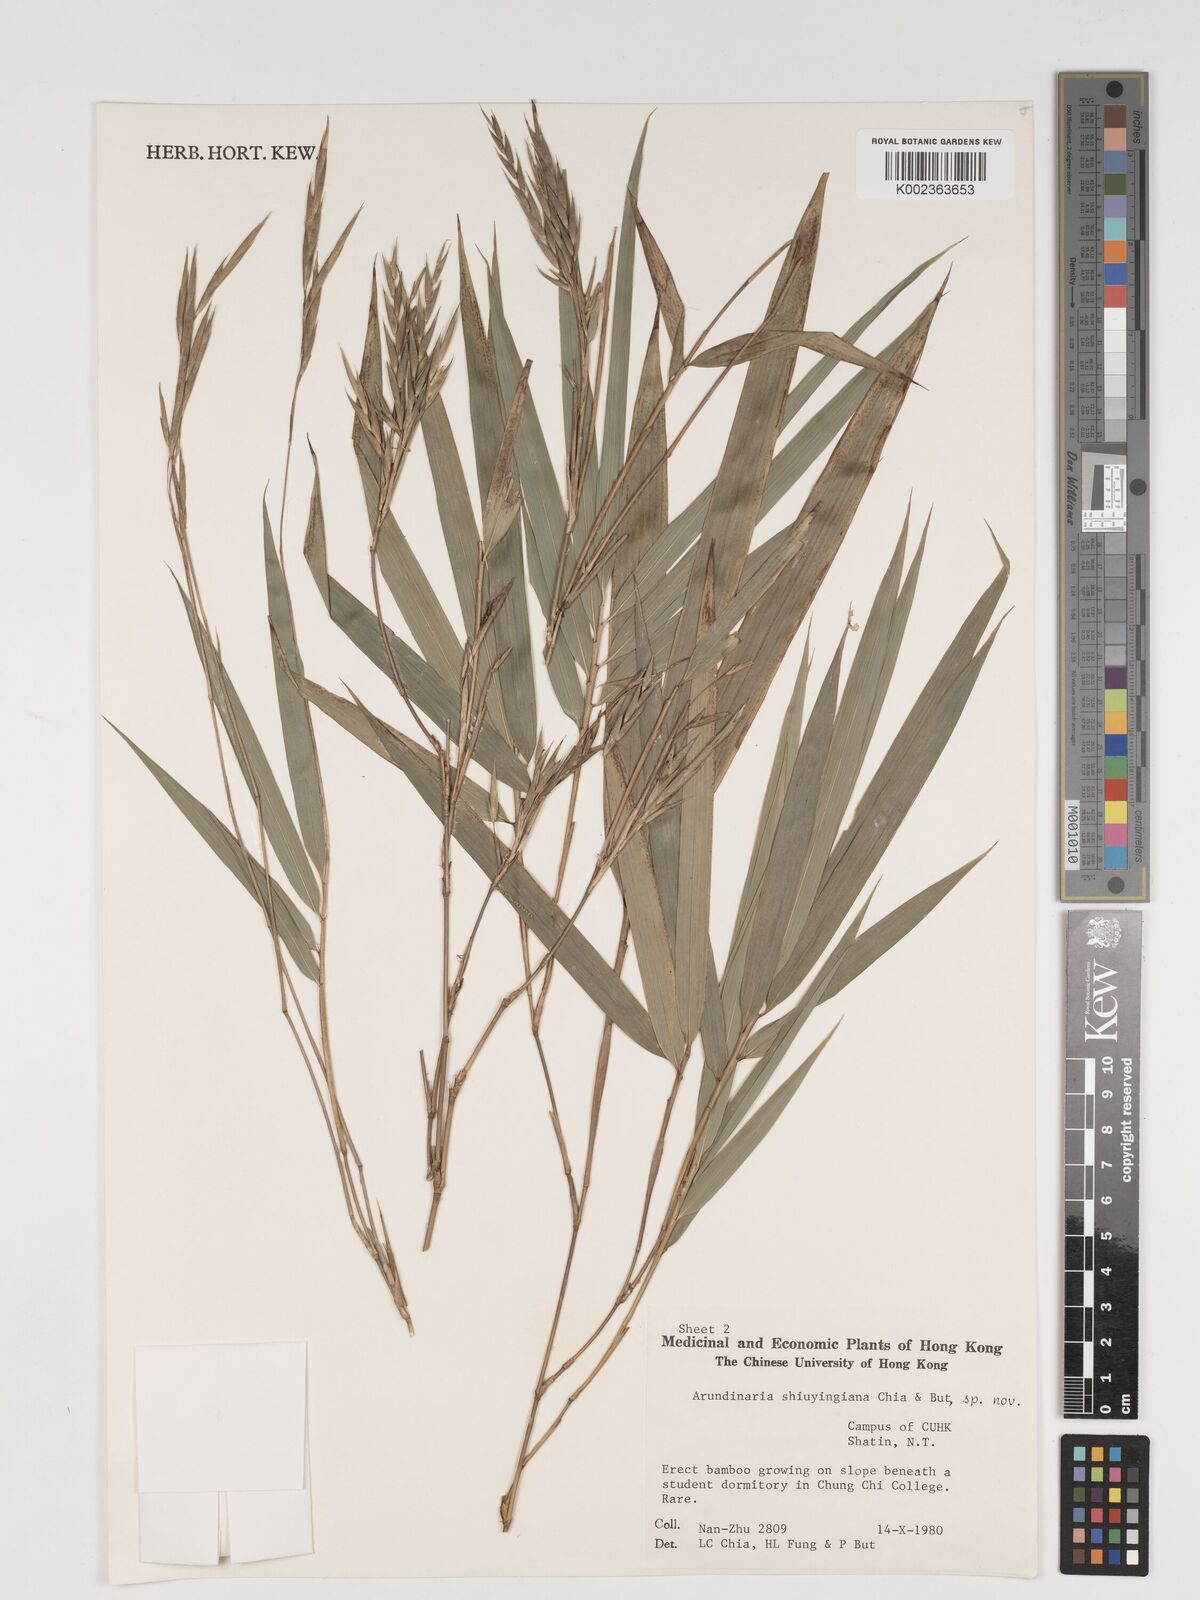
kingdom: Plantae
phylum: Tracheophyta
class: Liliopsida
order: Poales
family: Poaceae
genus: Oligostachyum
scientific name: Oligostachyum shiuyingianum
